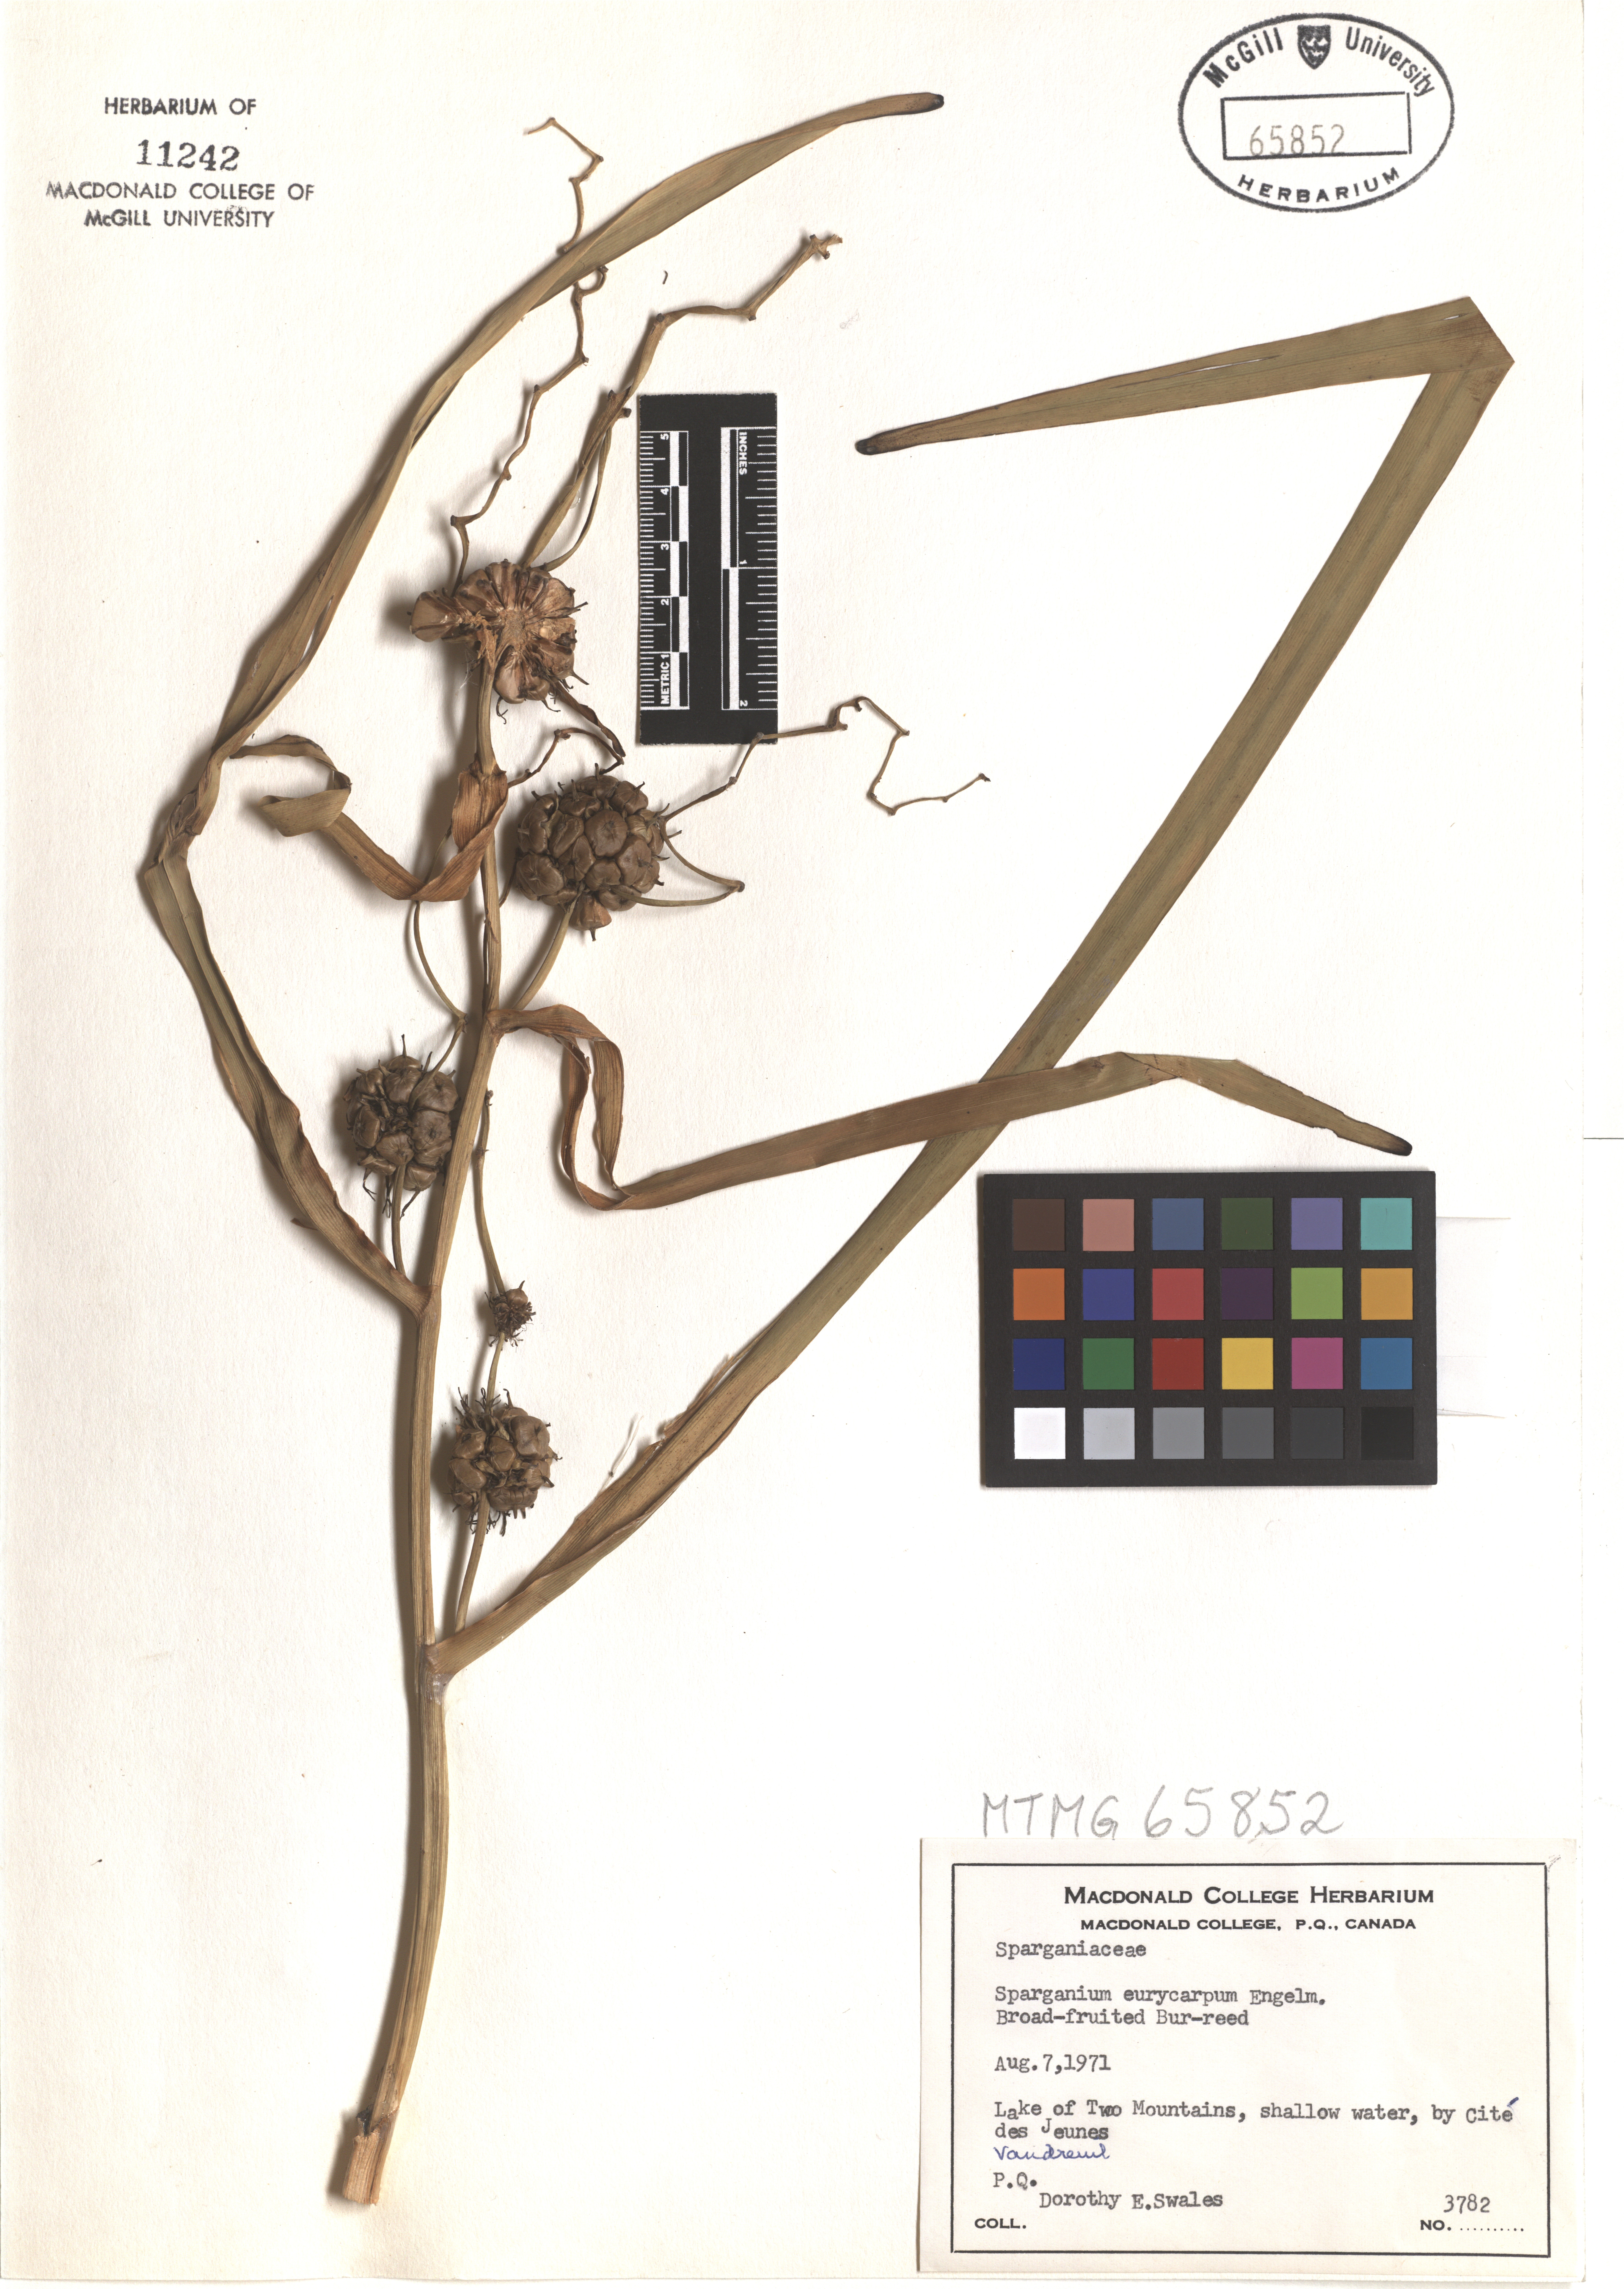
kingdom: Plantae
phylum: Tracheophyta
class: Liliopsida
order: Poales
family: Typhaceae
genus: Sparganium
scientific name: Sparganium eurycarpum
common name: Broad-fruited burreed
